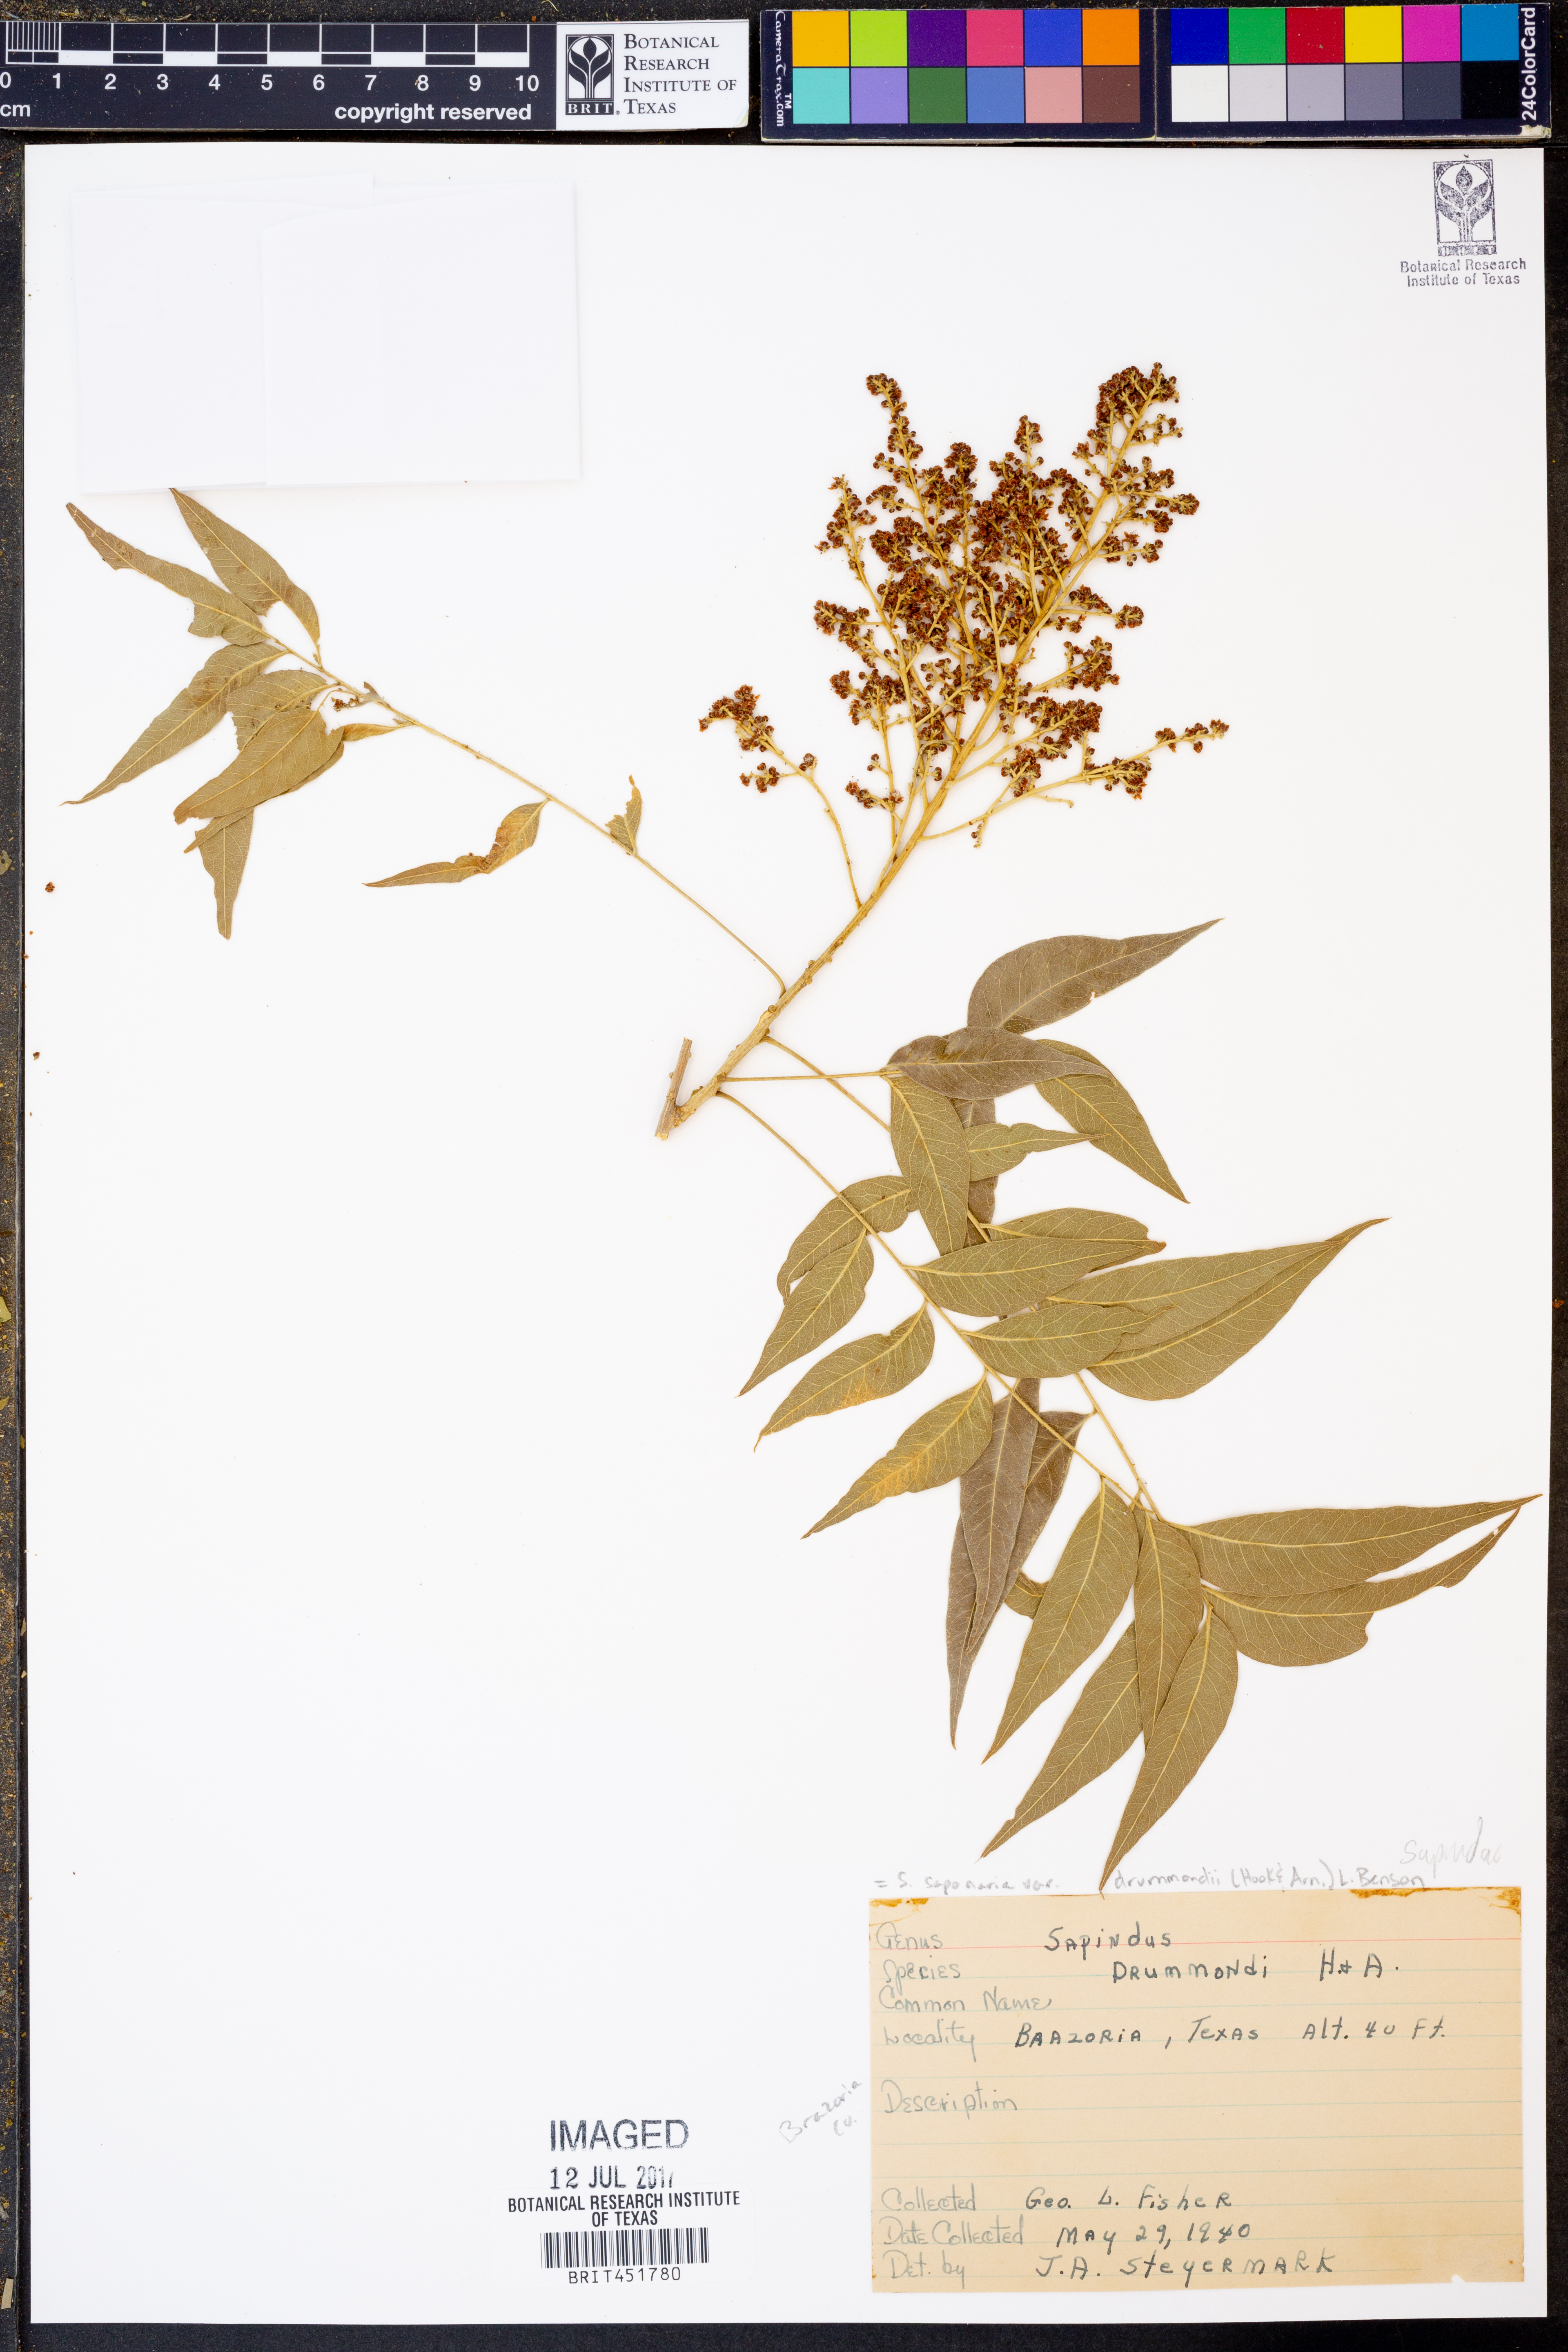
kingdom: Plantae
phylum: Tracheophyta
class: Magnoliopsida
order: Sapindales
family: Sapindaceae
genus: Sapindus
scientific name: Sapindus drummondii
